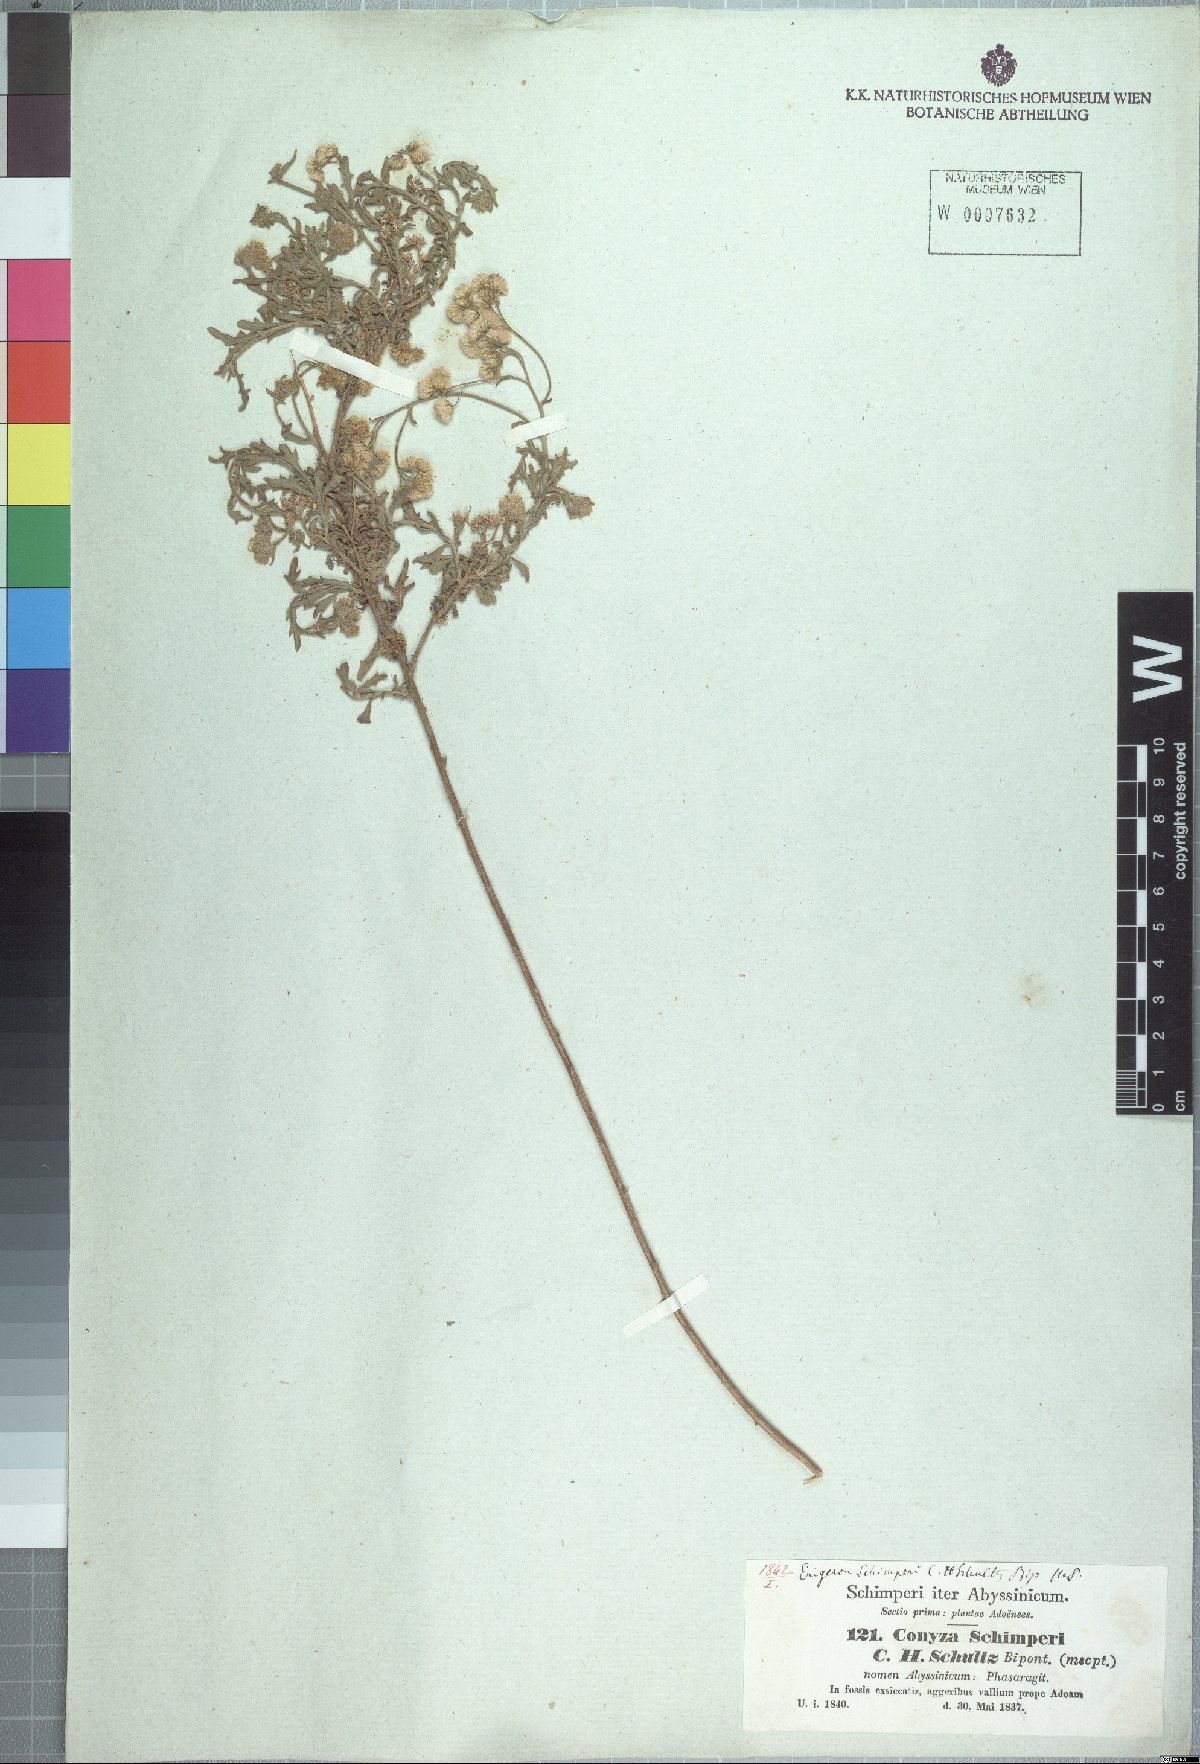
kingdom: Plantae
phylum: Tracheophyta
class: Magnoliopsida
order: Asterales
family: Asteraceae
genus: Conyza
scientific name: Conyza schimperi
